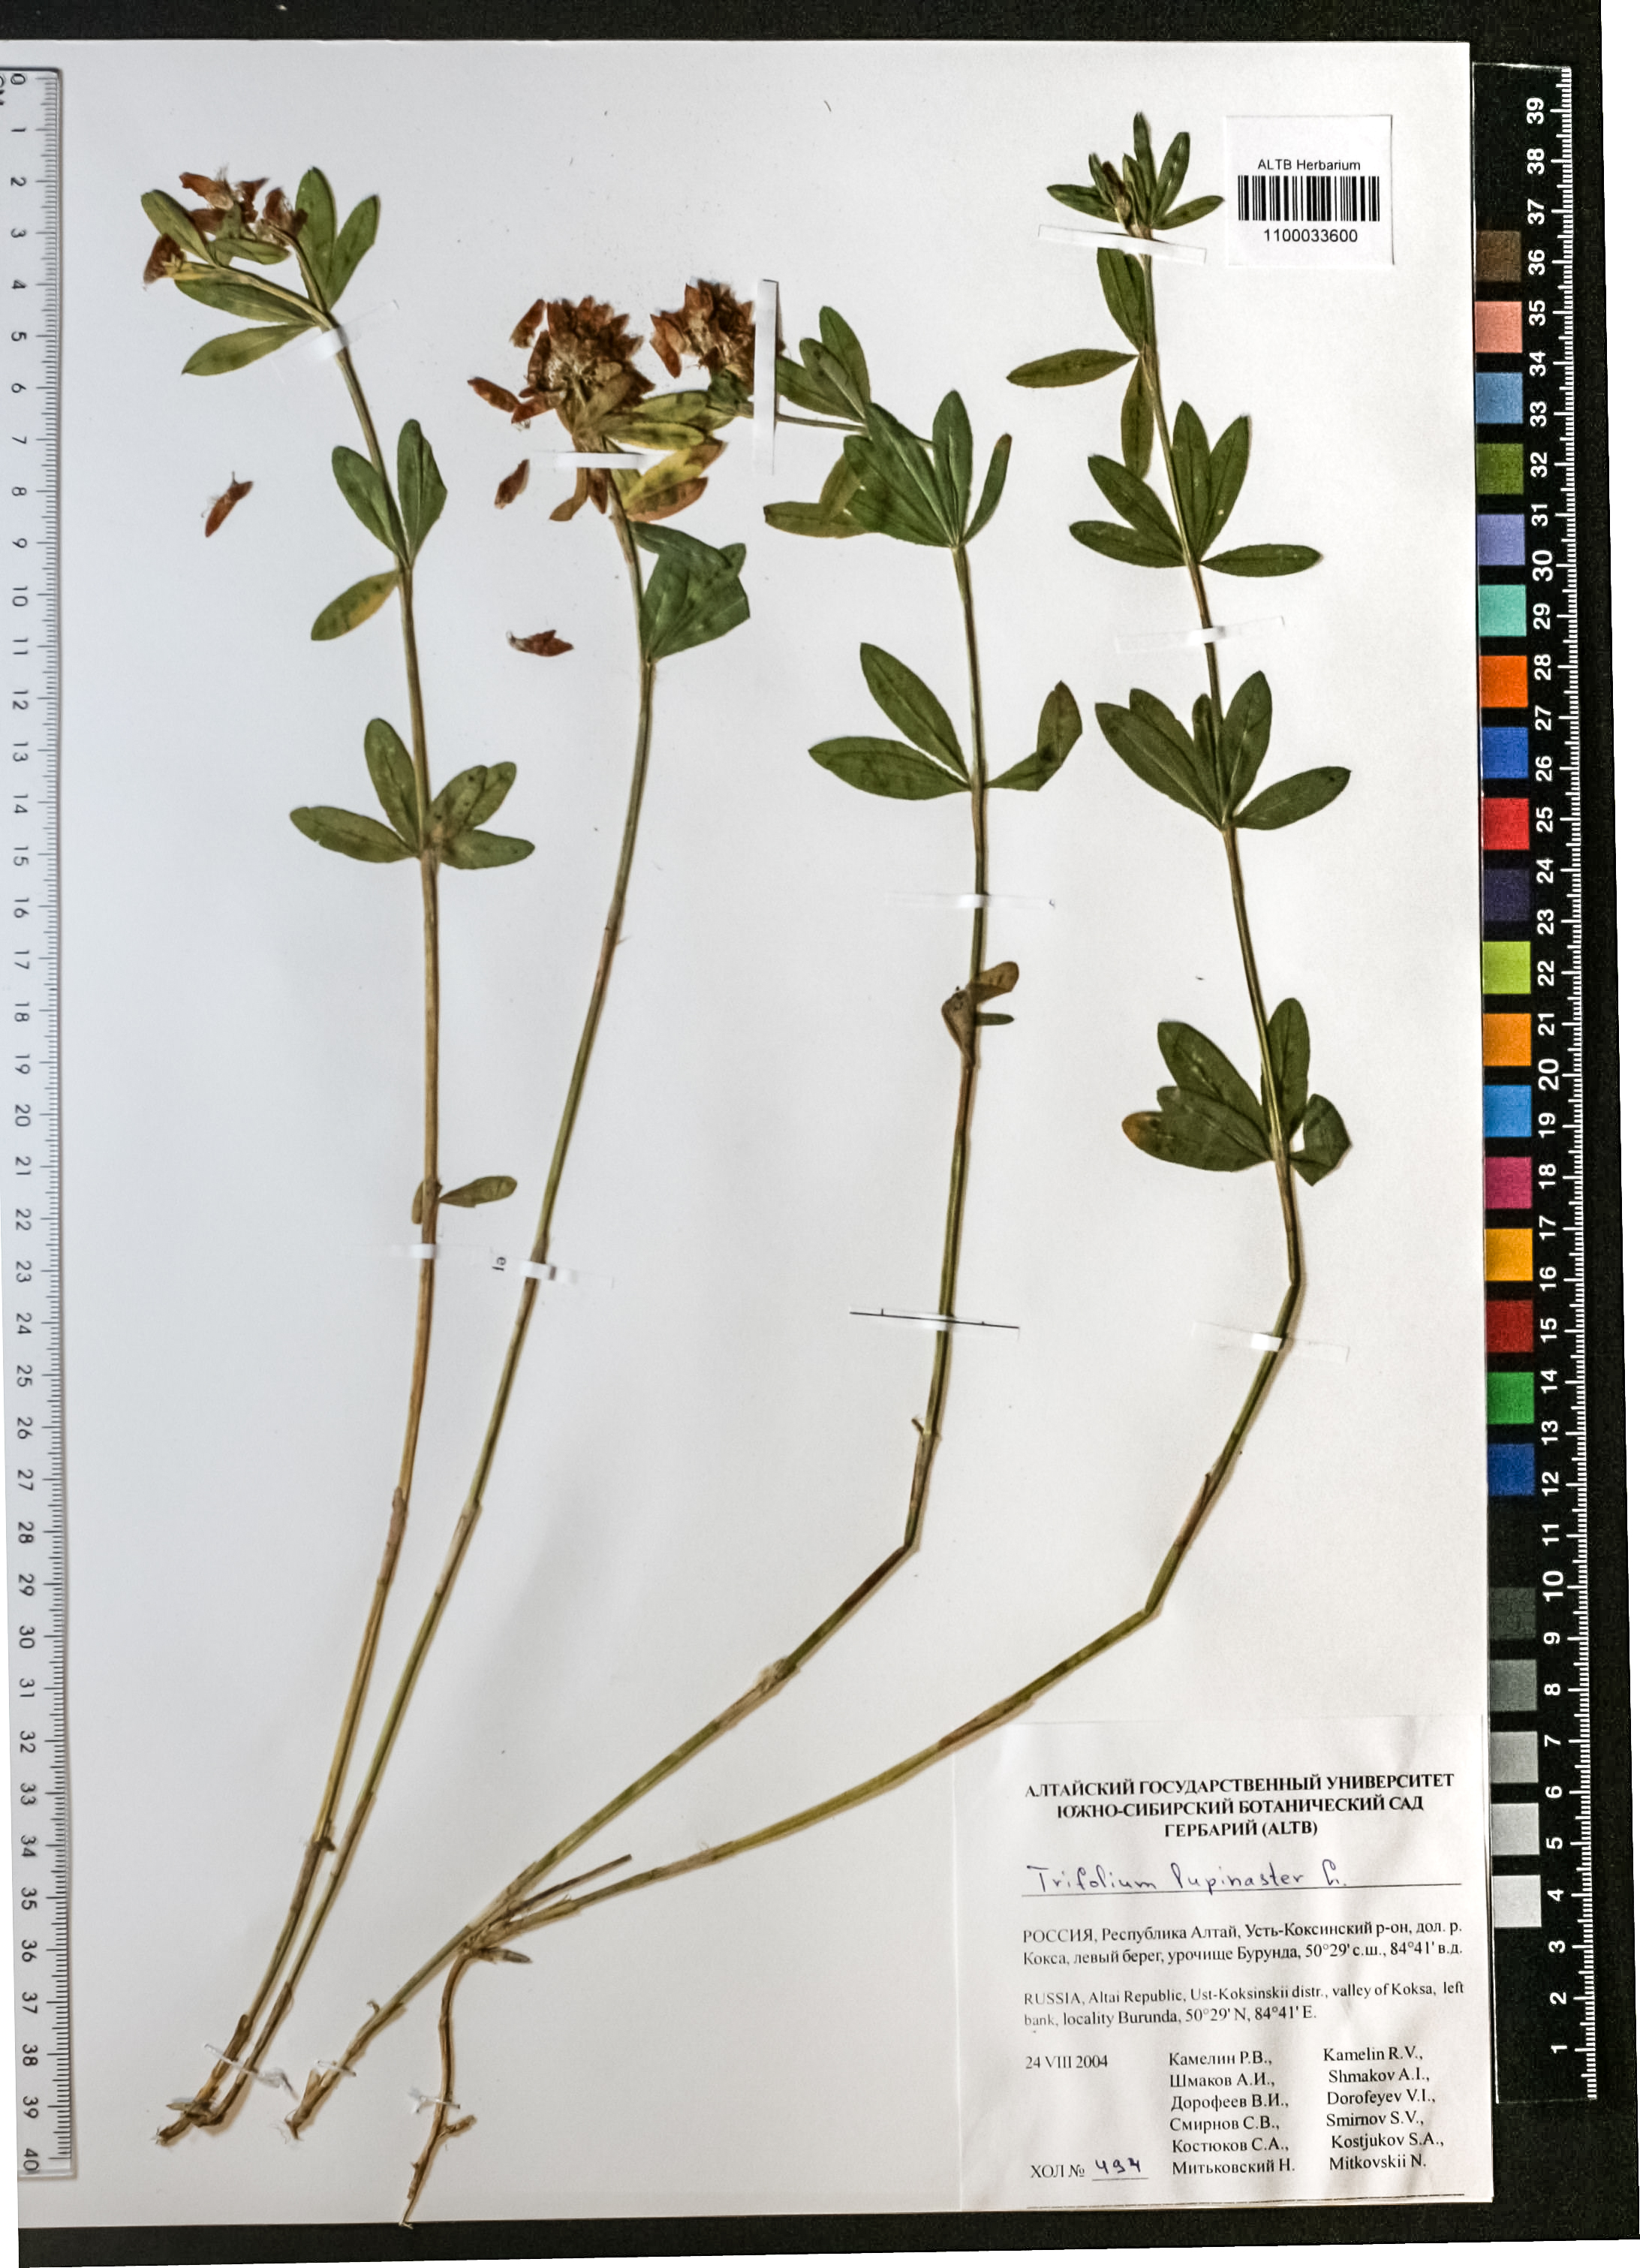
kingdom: Plantae
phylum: Tracheophyta
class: Magnoliopsida
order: Fabales
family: Fabaceae
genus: Trifolium
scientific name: Trifolium lupinaster
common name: Lupine clover
